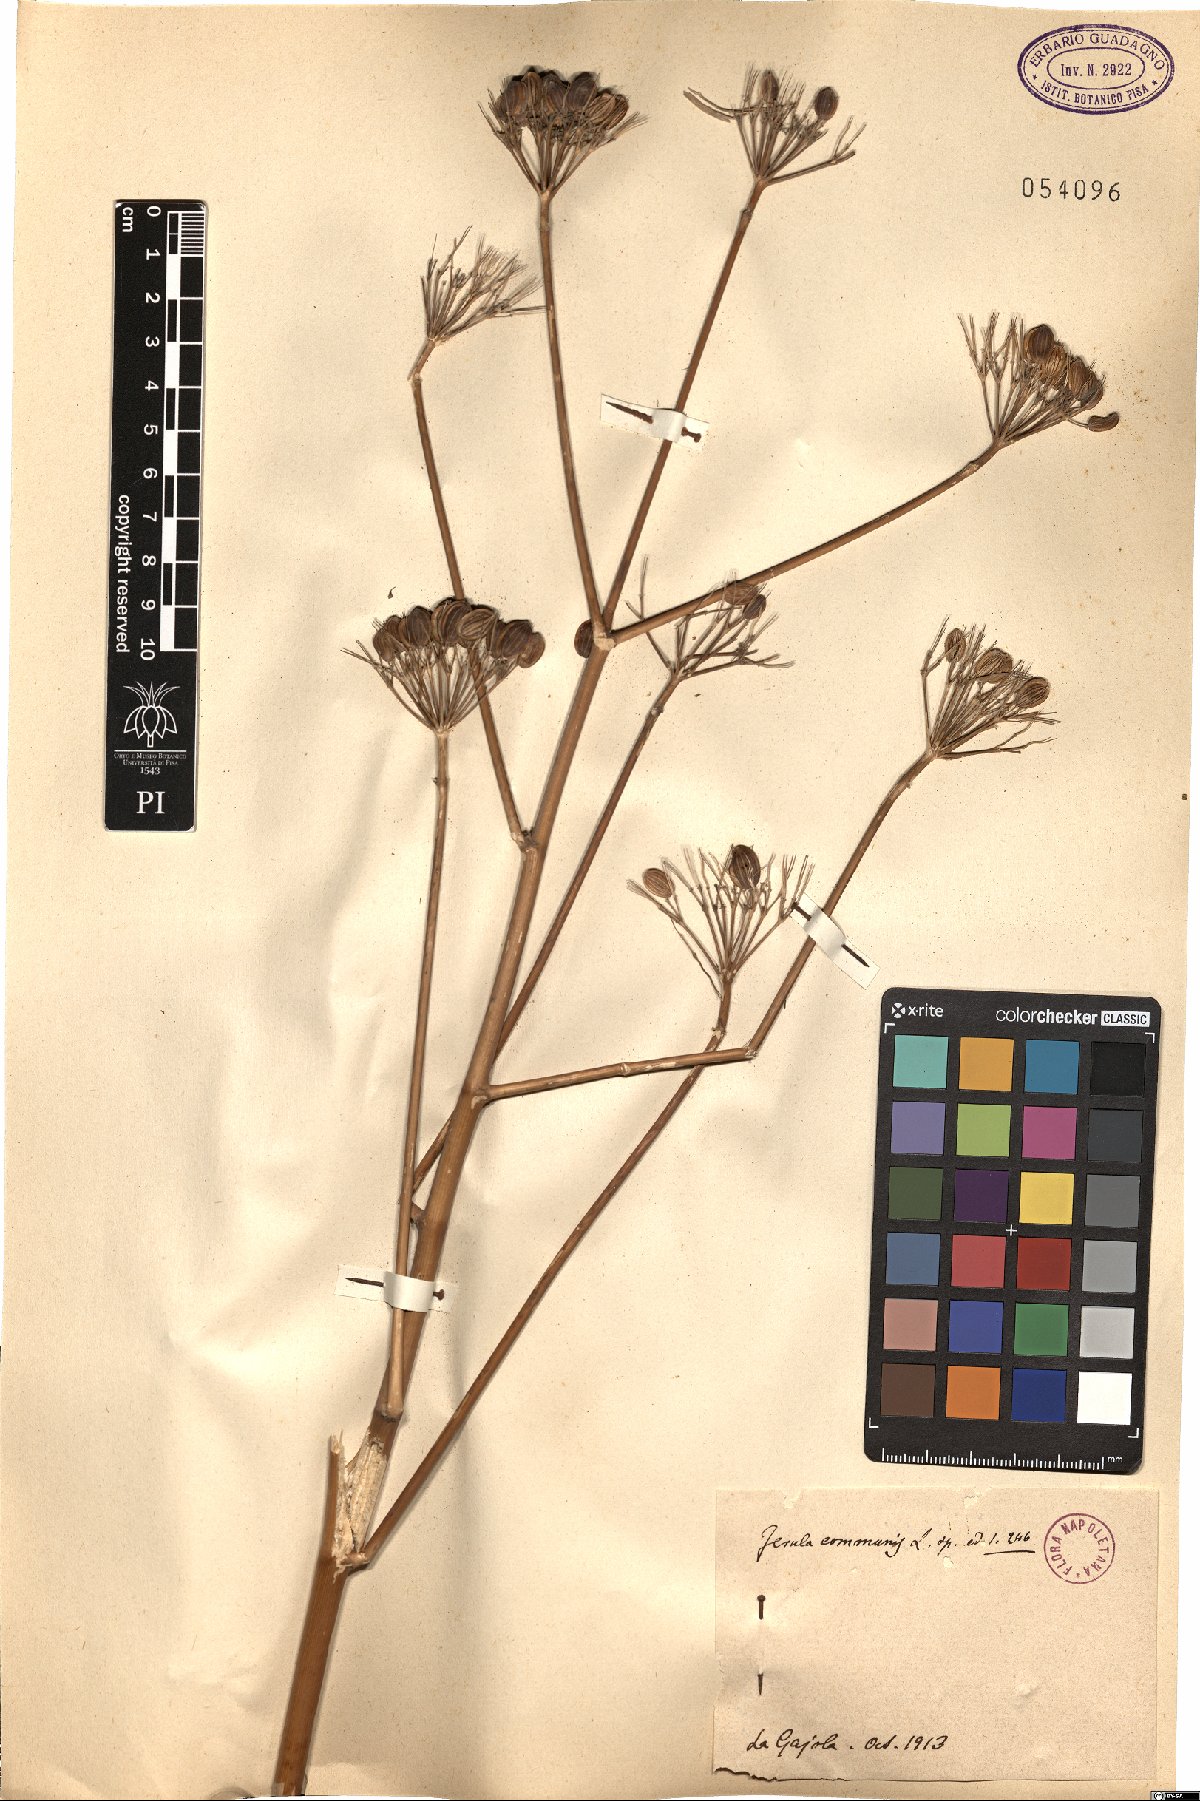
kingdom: Plantae
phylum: Tracheophyta
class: Magnoliopsida
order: Apiales
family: Apiaceae
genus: Ferula
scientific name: Ferula communis
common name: Giant fennel
